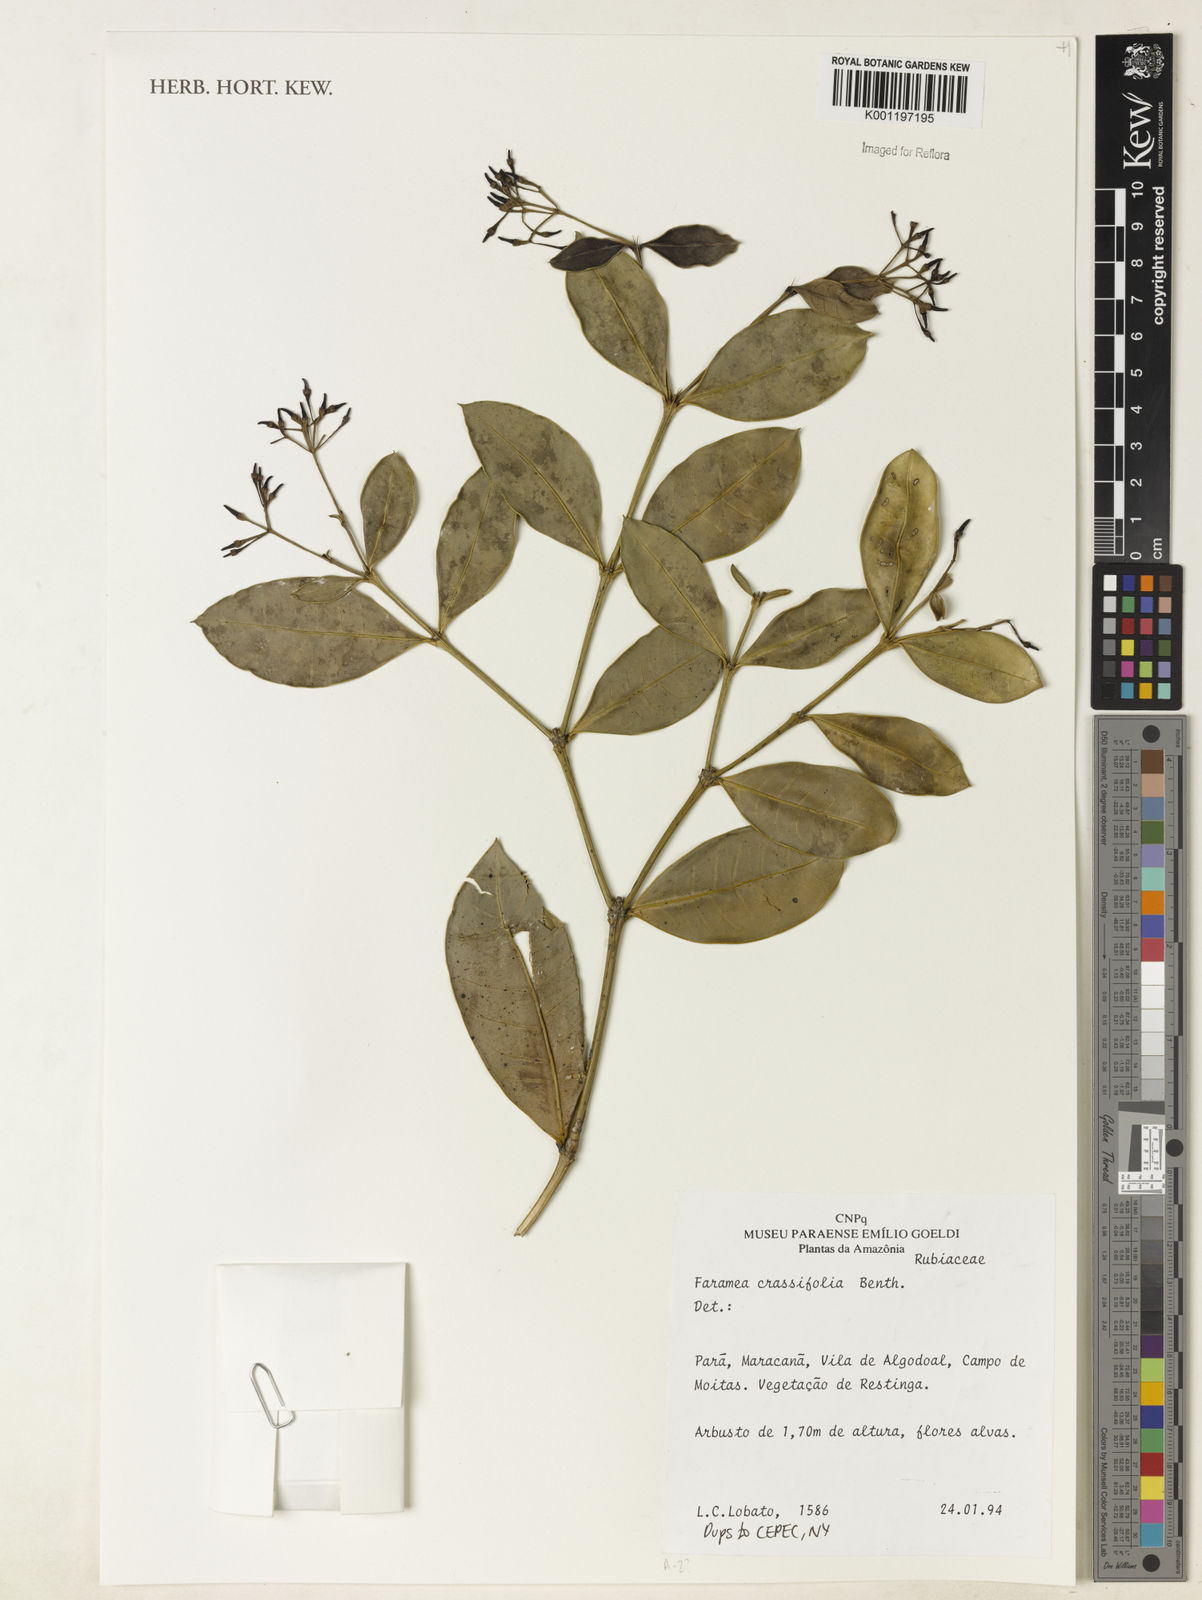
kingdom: Plantae
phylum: Tracheophyta
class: Magnoliopsida
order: Gentianales
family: Rubiaceae
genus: Faramea
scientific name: Faramea crassifolia
